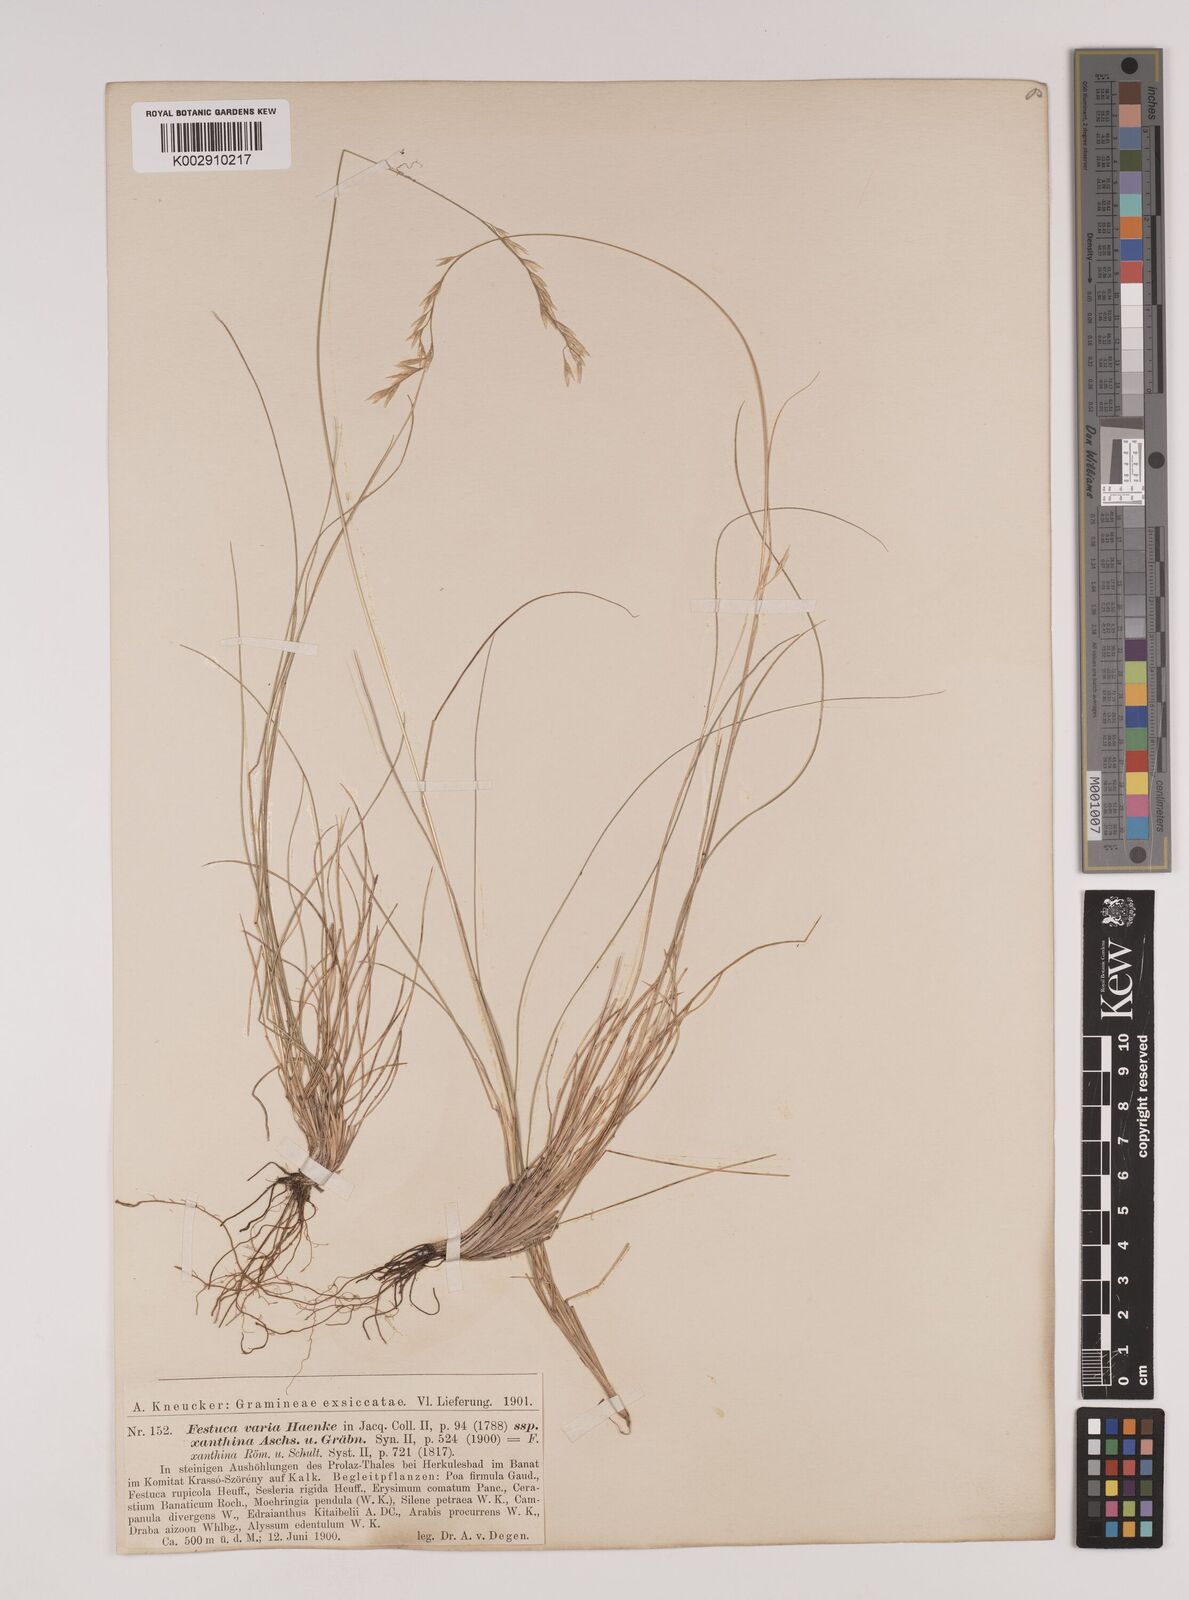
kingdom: Plantae
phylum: Tracheophyta
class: Liliopsida
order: Poales
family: Poaceae
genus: Festuca
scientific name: Festuca xanthina
